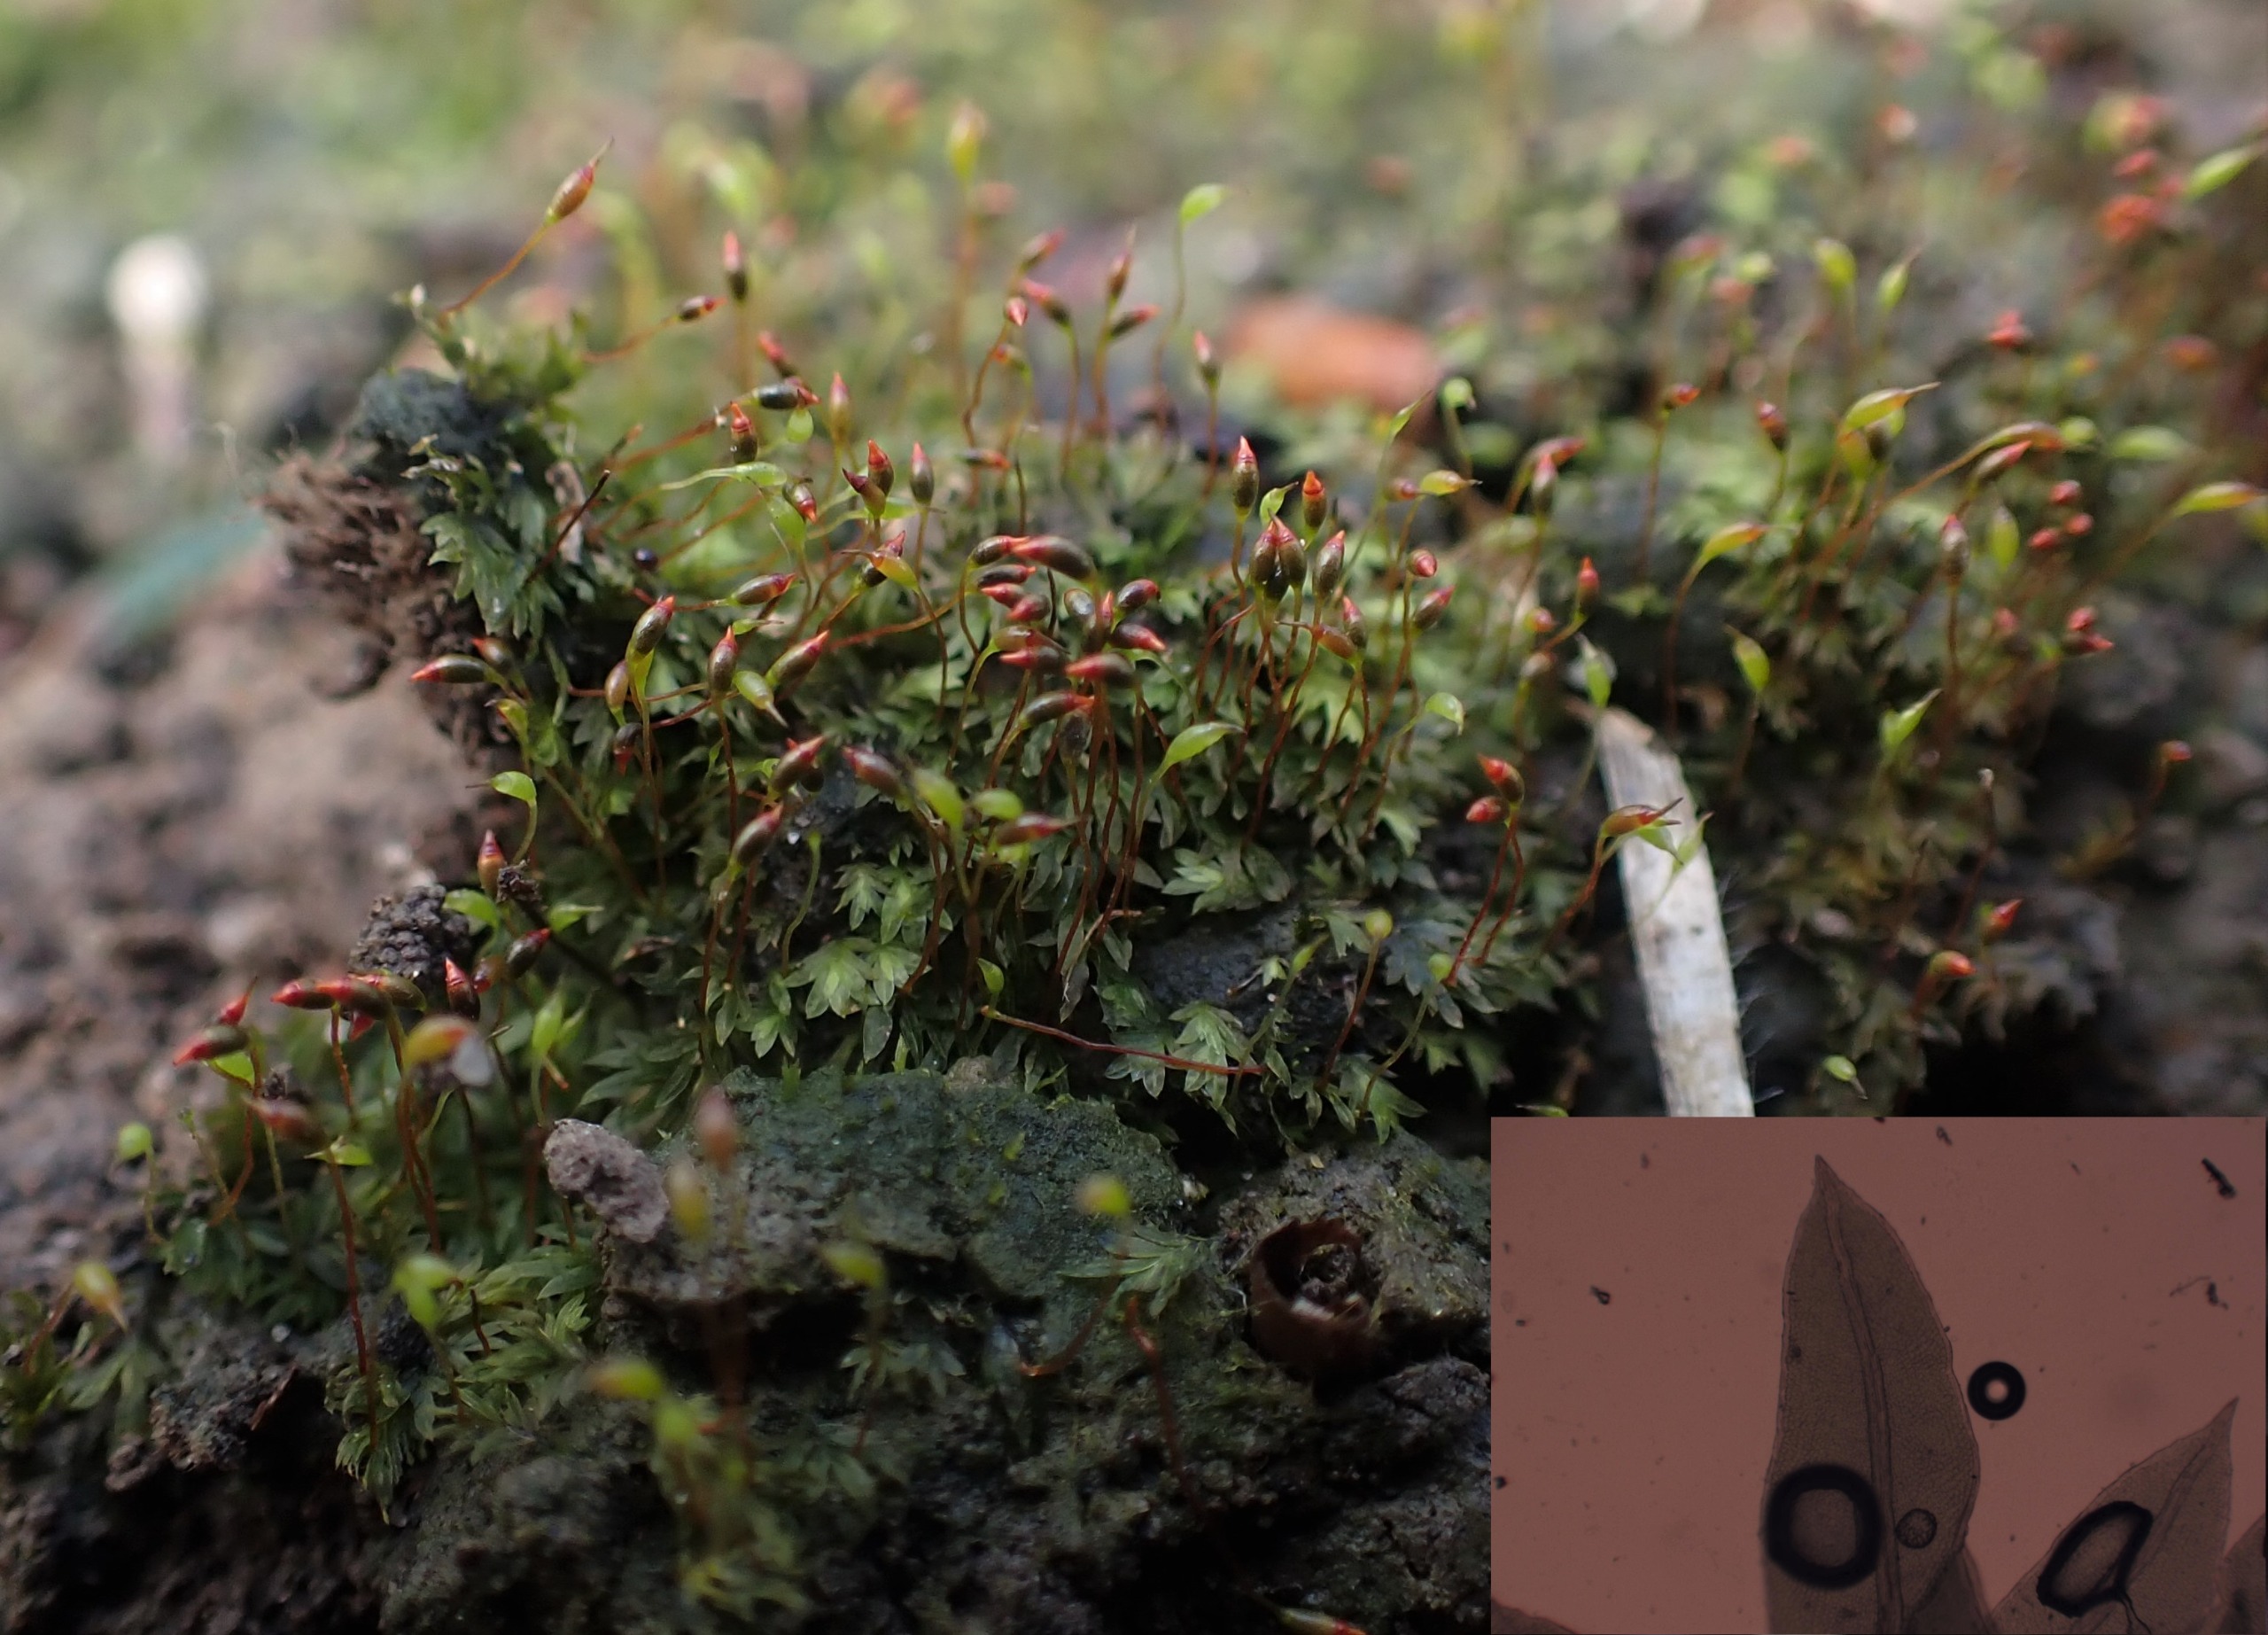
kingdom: Plantae
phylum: Bryophyta
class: Bryopsida
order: Dicranales
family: Fissidentaceae
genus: Fissidens
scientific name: Fissidens incurvus
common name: Nikkende rademos
